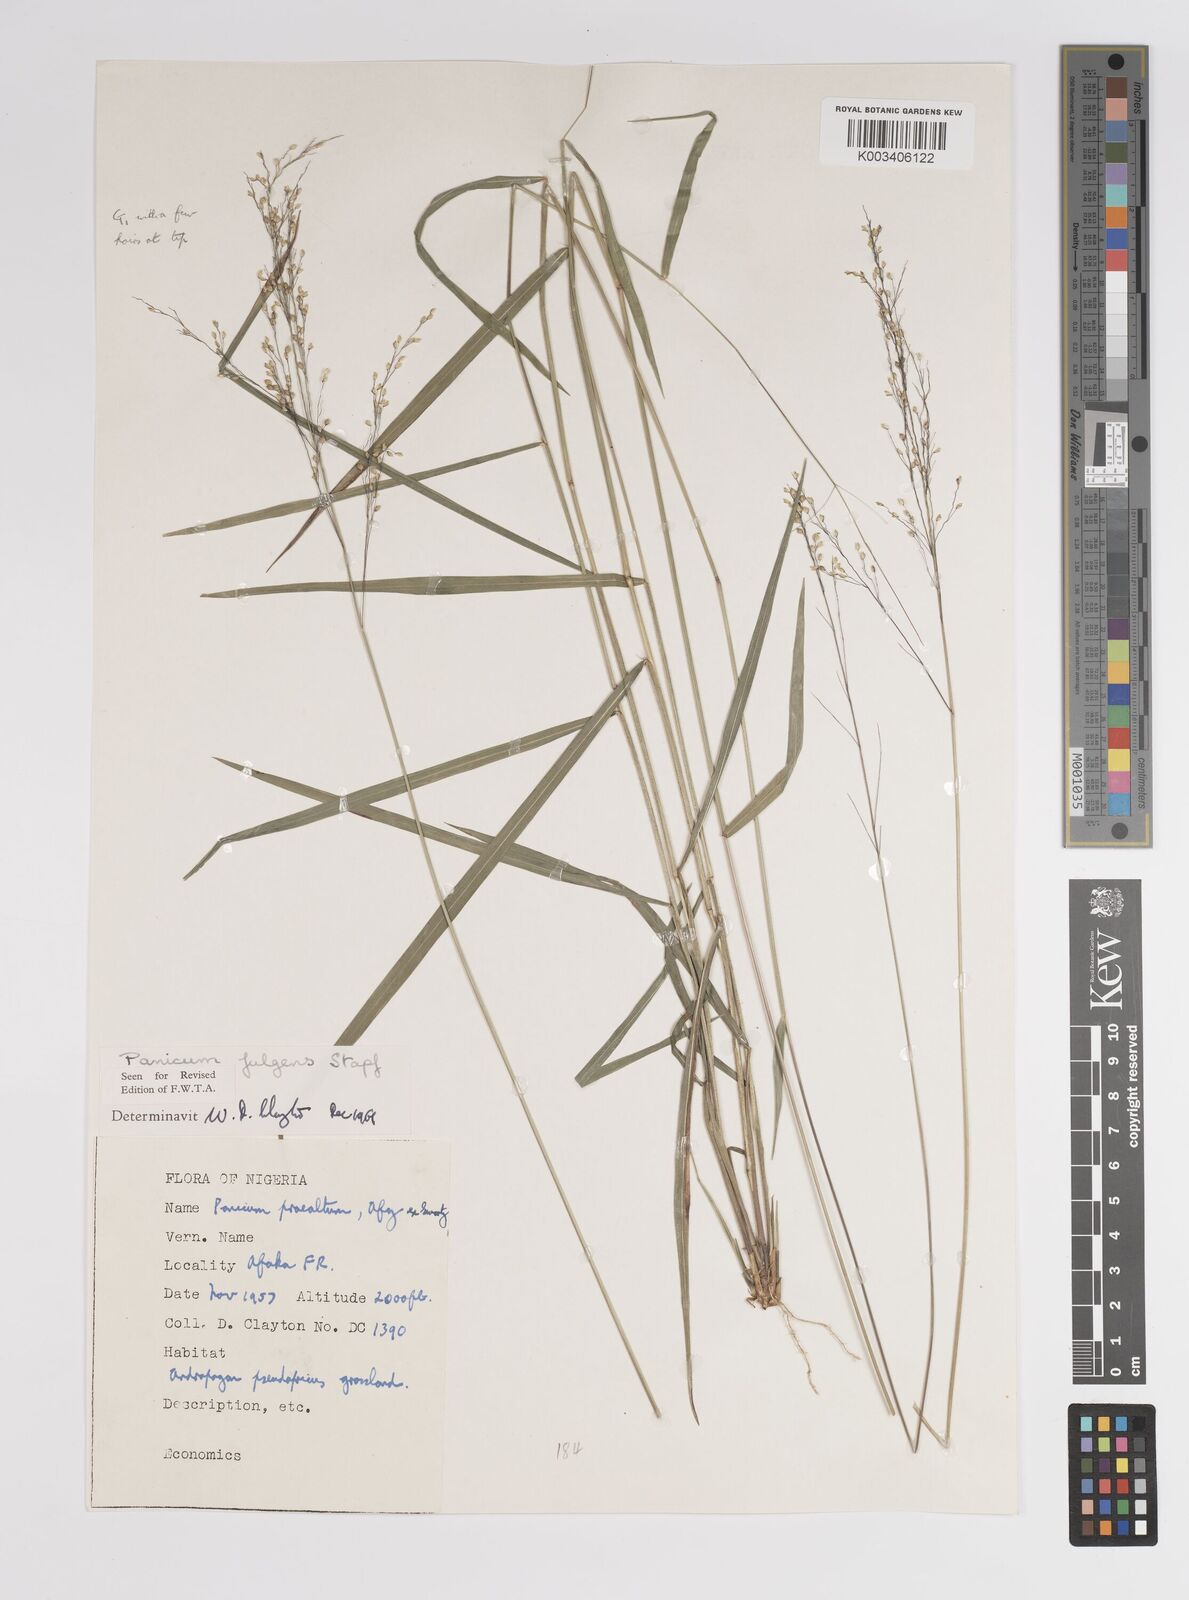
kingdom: Plantae
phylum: Tracheophyta
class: Liliopsida
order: Poales
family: Poaceae
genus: Trichanthecium
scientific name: Trichanthecium nervatum
